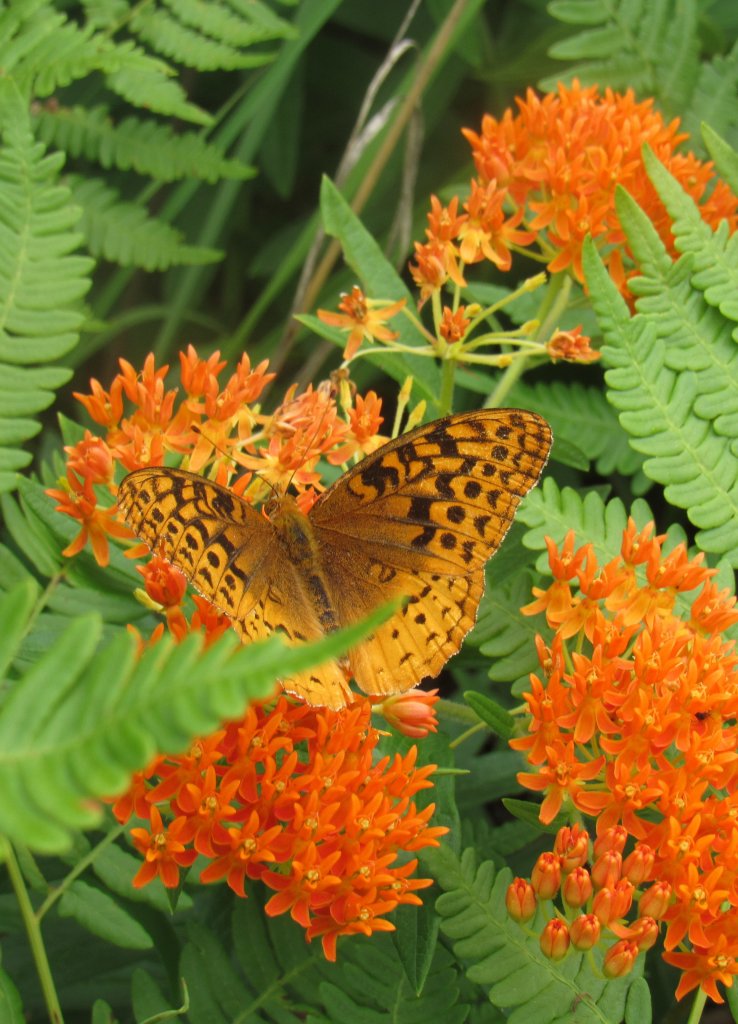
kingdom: Animalia
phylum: Arthropoda
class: Insecta
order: Lepidoptera
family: Nymphalidae
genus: Speyeria
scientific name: Speyeria cybele
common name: Great Spangled Fritillary
